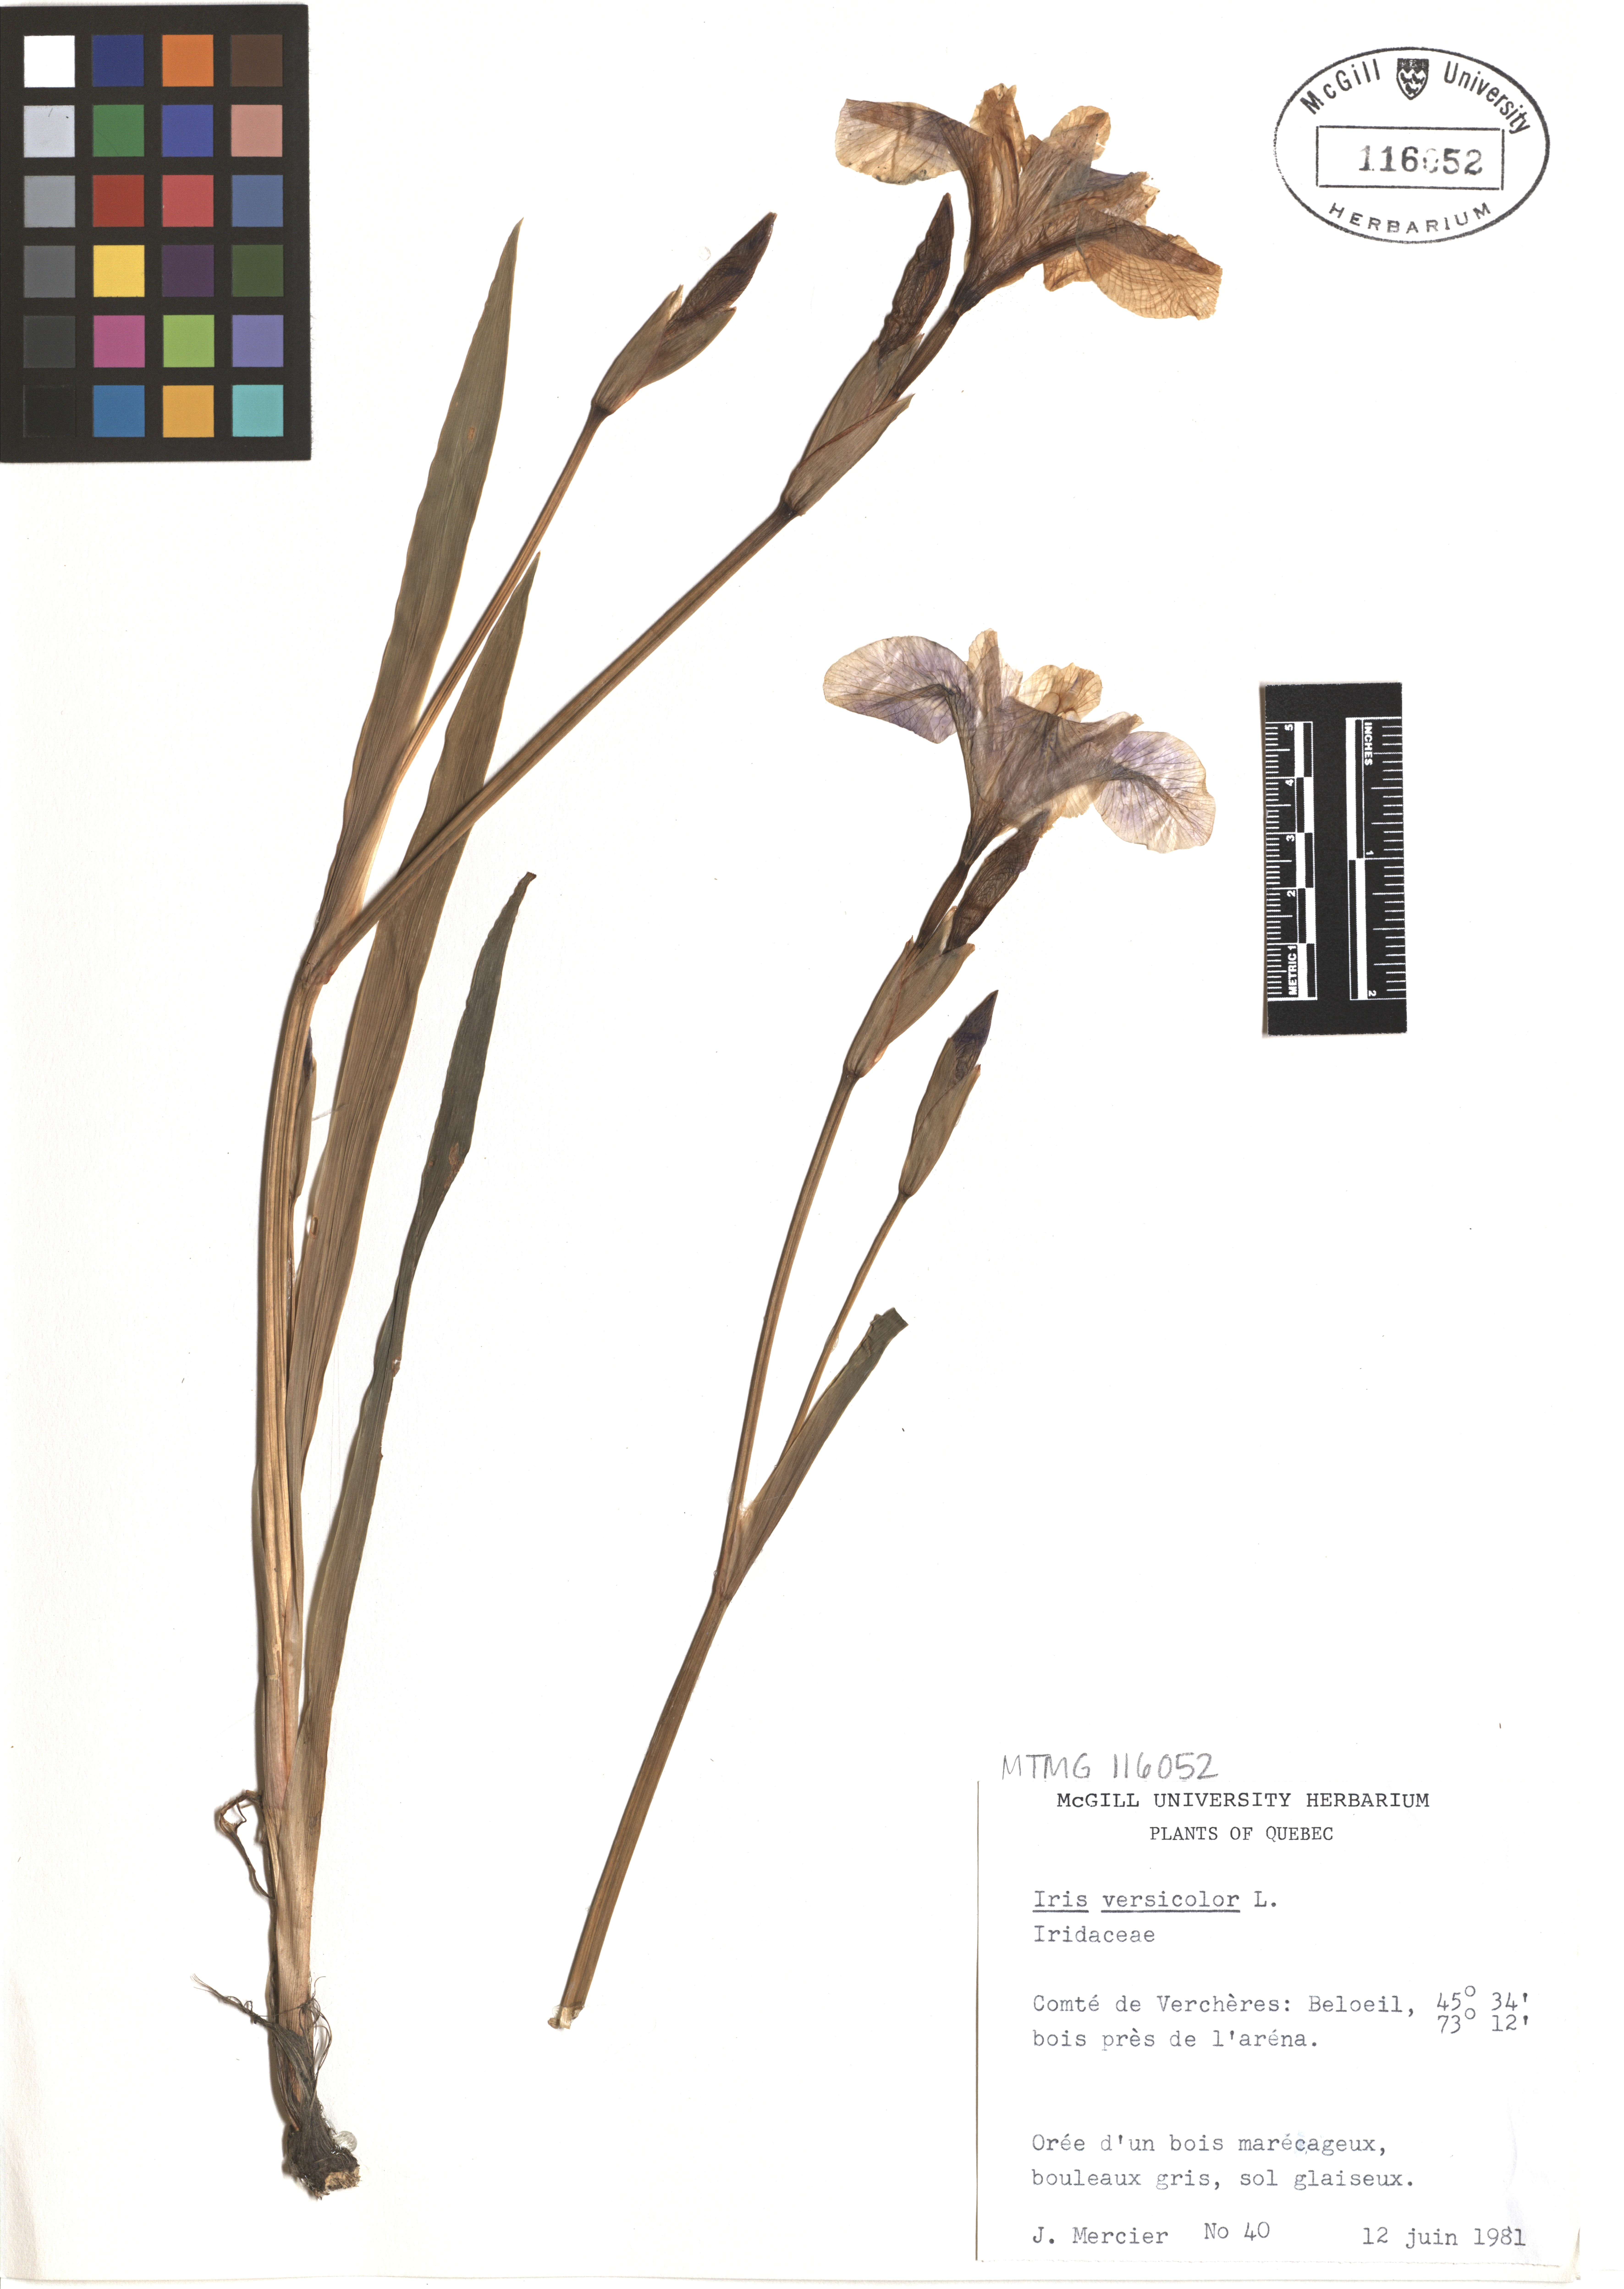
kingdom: Plantae
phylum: Tracheophyta
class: Liliopsida
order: Asparagales
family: Iridaceae
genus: Iris
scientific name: Iris versicolor
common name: Purple iris
